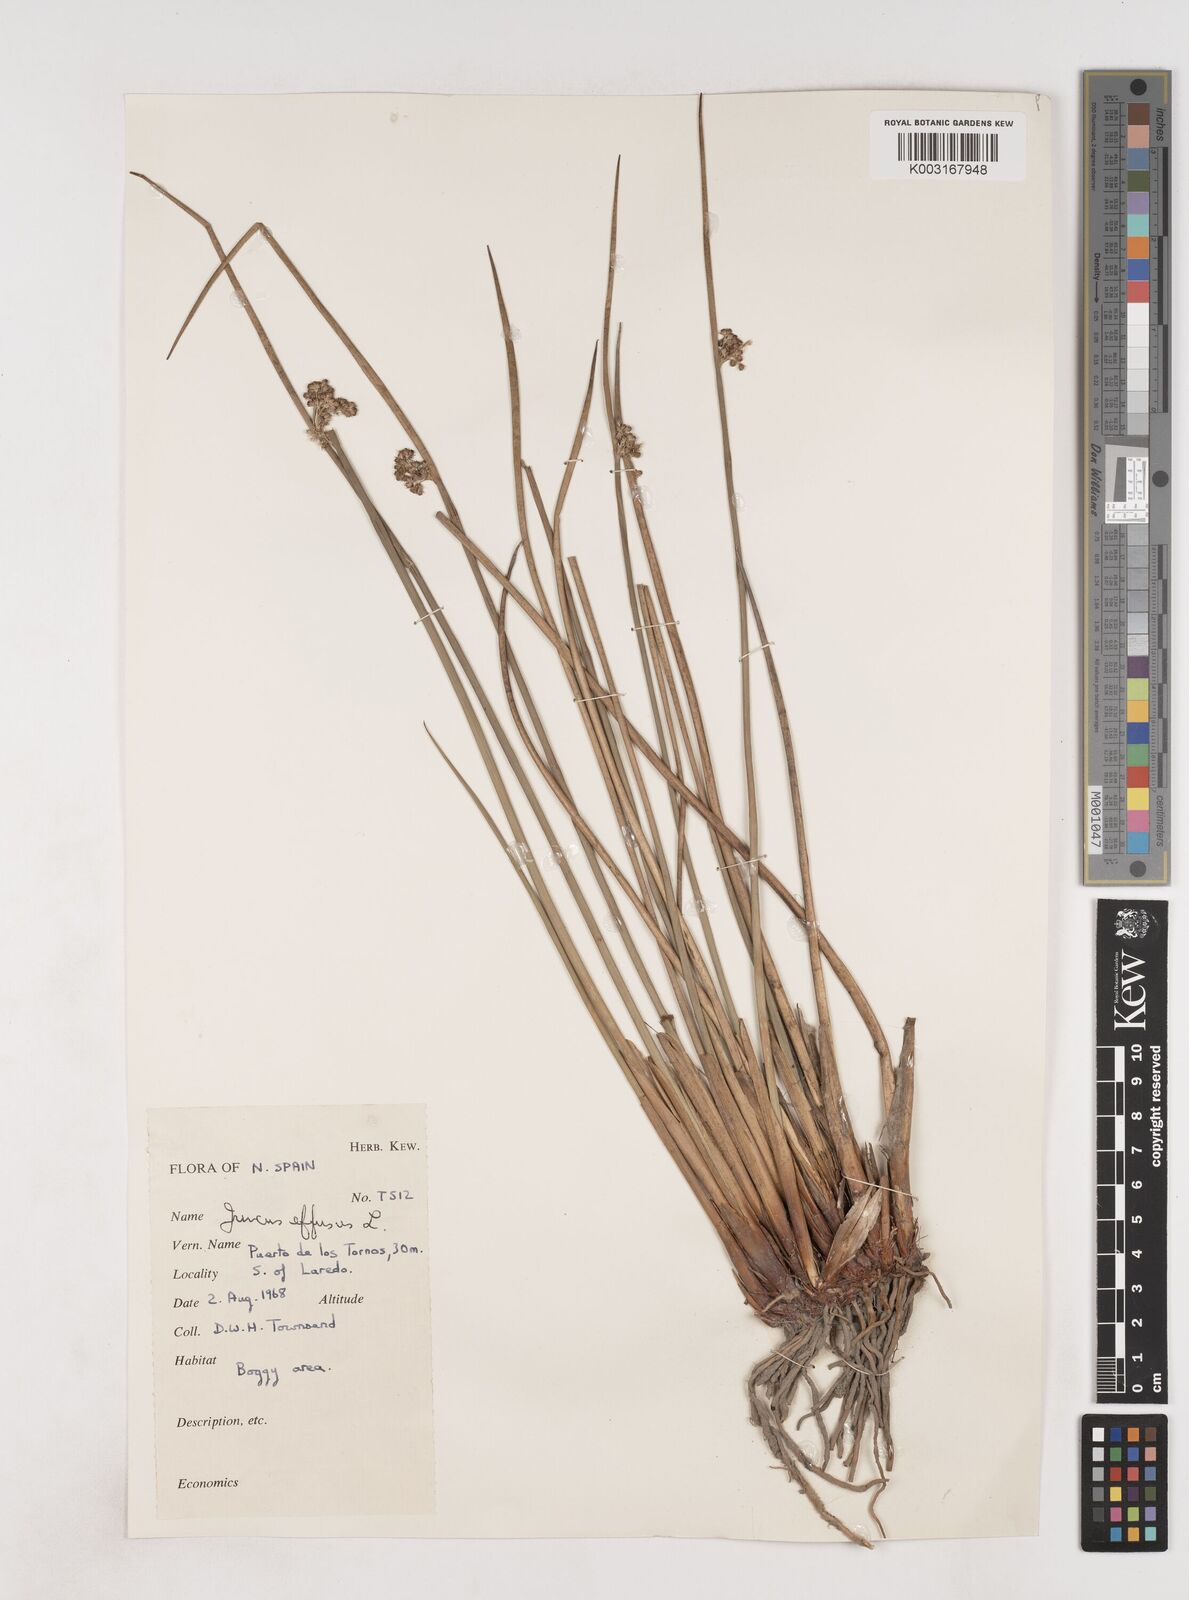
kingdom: Plantae
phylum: Tracheophyta
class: Liliopsida
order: Poales
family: Juncaceae
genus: Juncus
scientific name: Juncus effusus
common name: Soft rush
